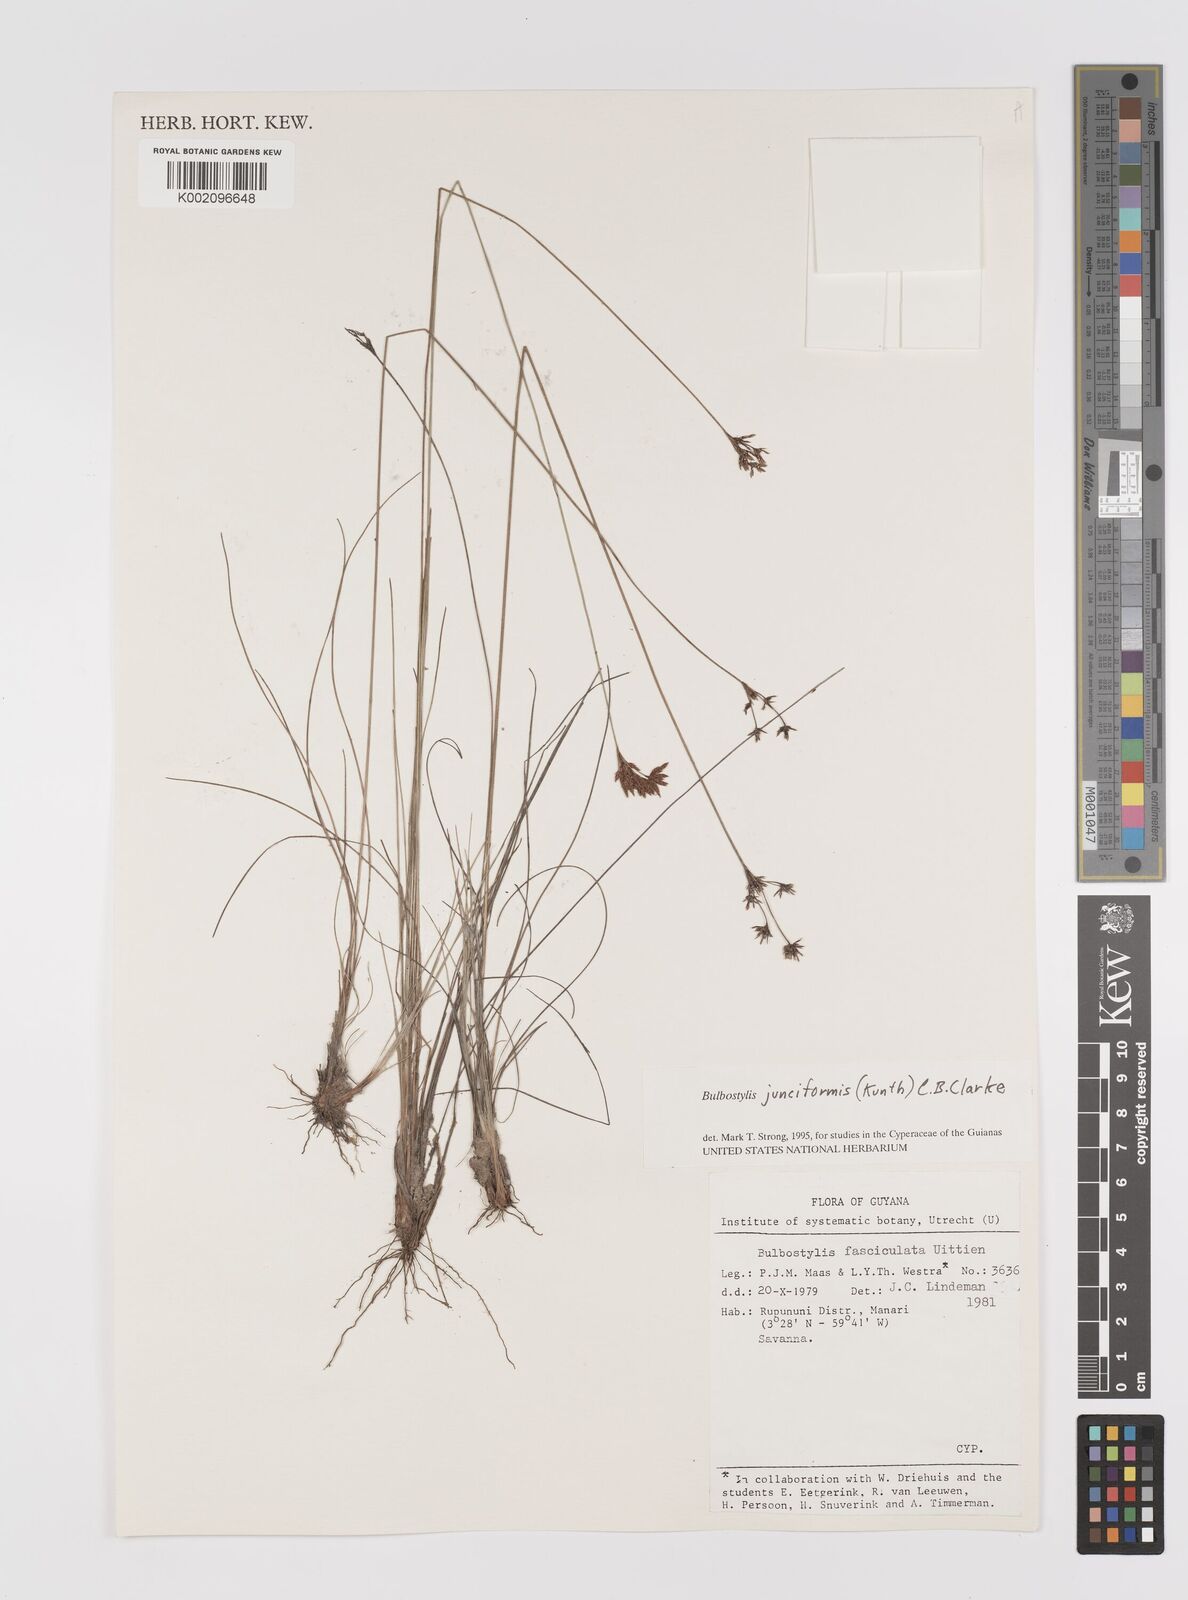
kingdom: Plantae
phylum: Tracheophyta
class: Liliopsida
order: Poales
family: Cyperaceae
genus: Bulbostylis
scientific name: Bulbostylis junciformis
